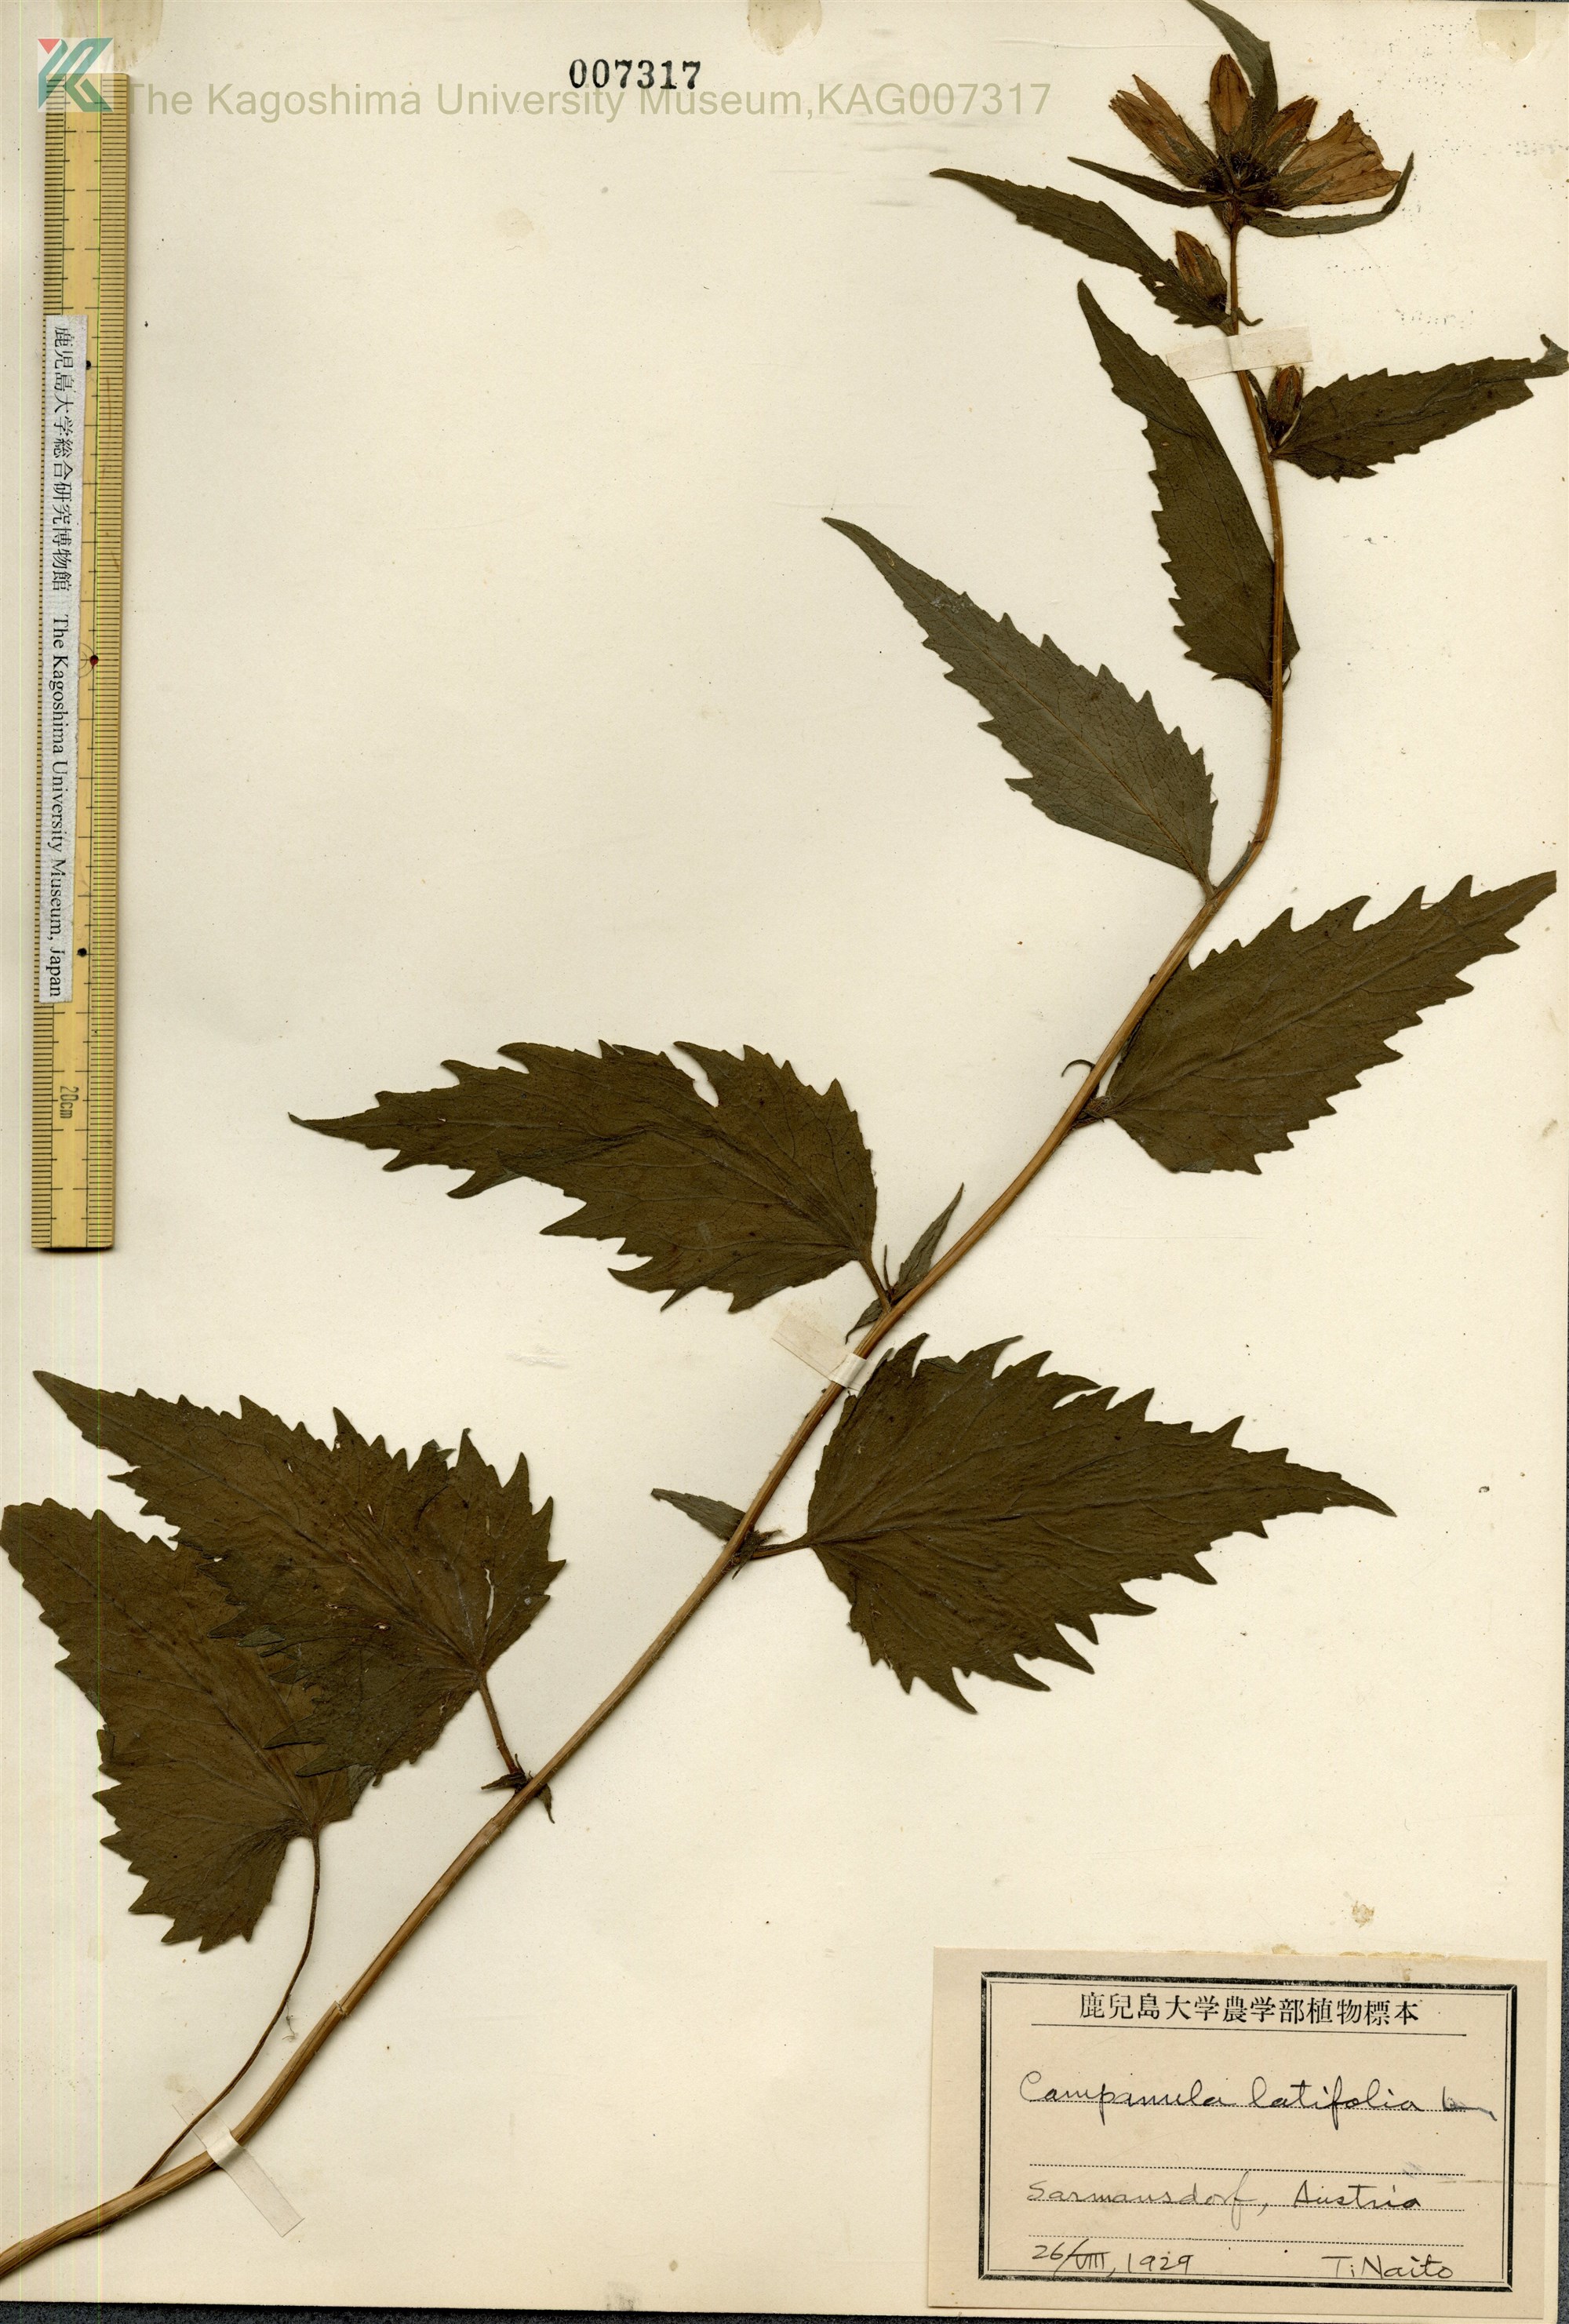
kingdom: Plantae
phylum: Tracheophyta
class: Magnoliopsida
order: Asterales
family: Campanulaceae
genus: Campanula
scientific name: Campanula latifolia
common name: Giant bellflower
